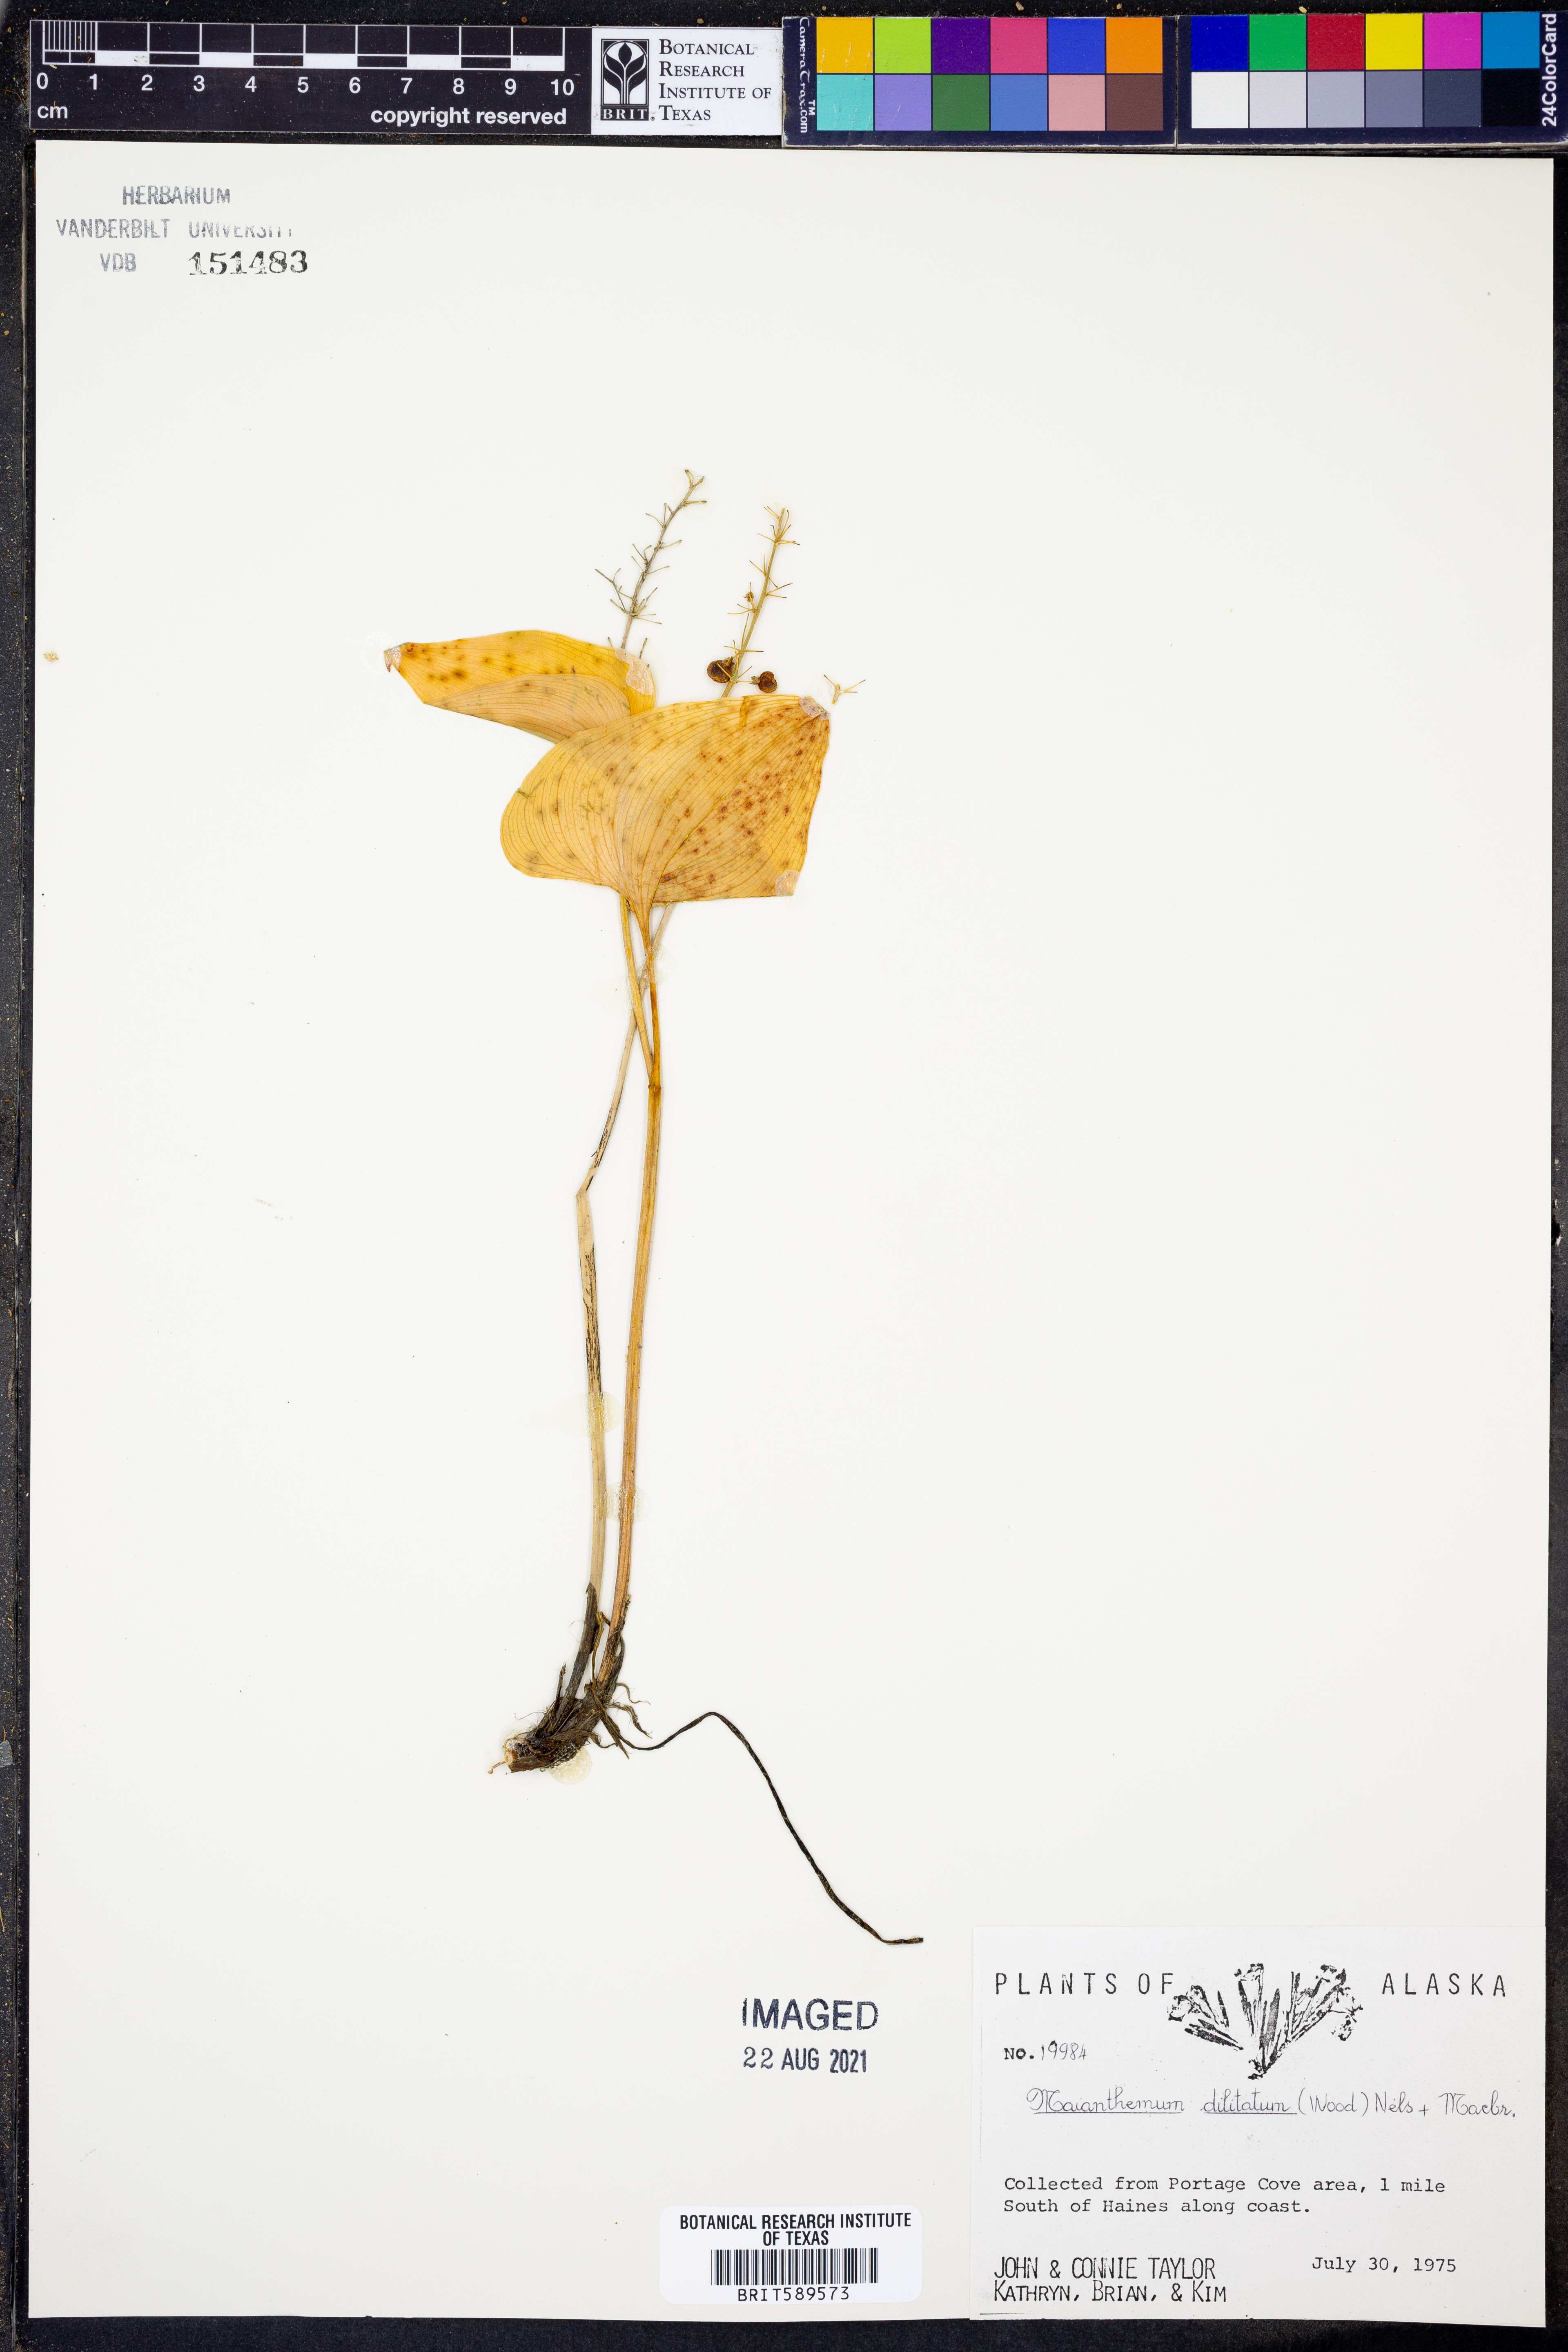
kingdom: Plantae
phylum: Tracheophyta
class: Liliopsida
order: Asparagales
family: Asparagaceae
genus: Maianthemum
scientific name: Maianthemum dilatatum
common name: False lily-of-the-valley
